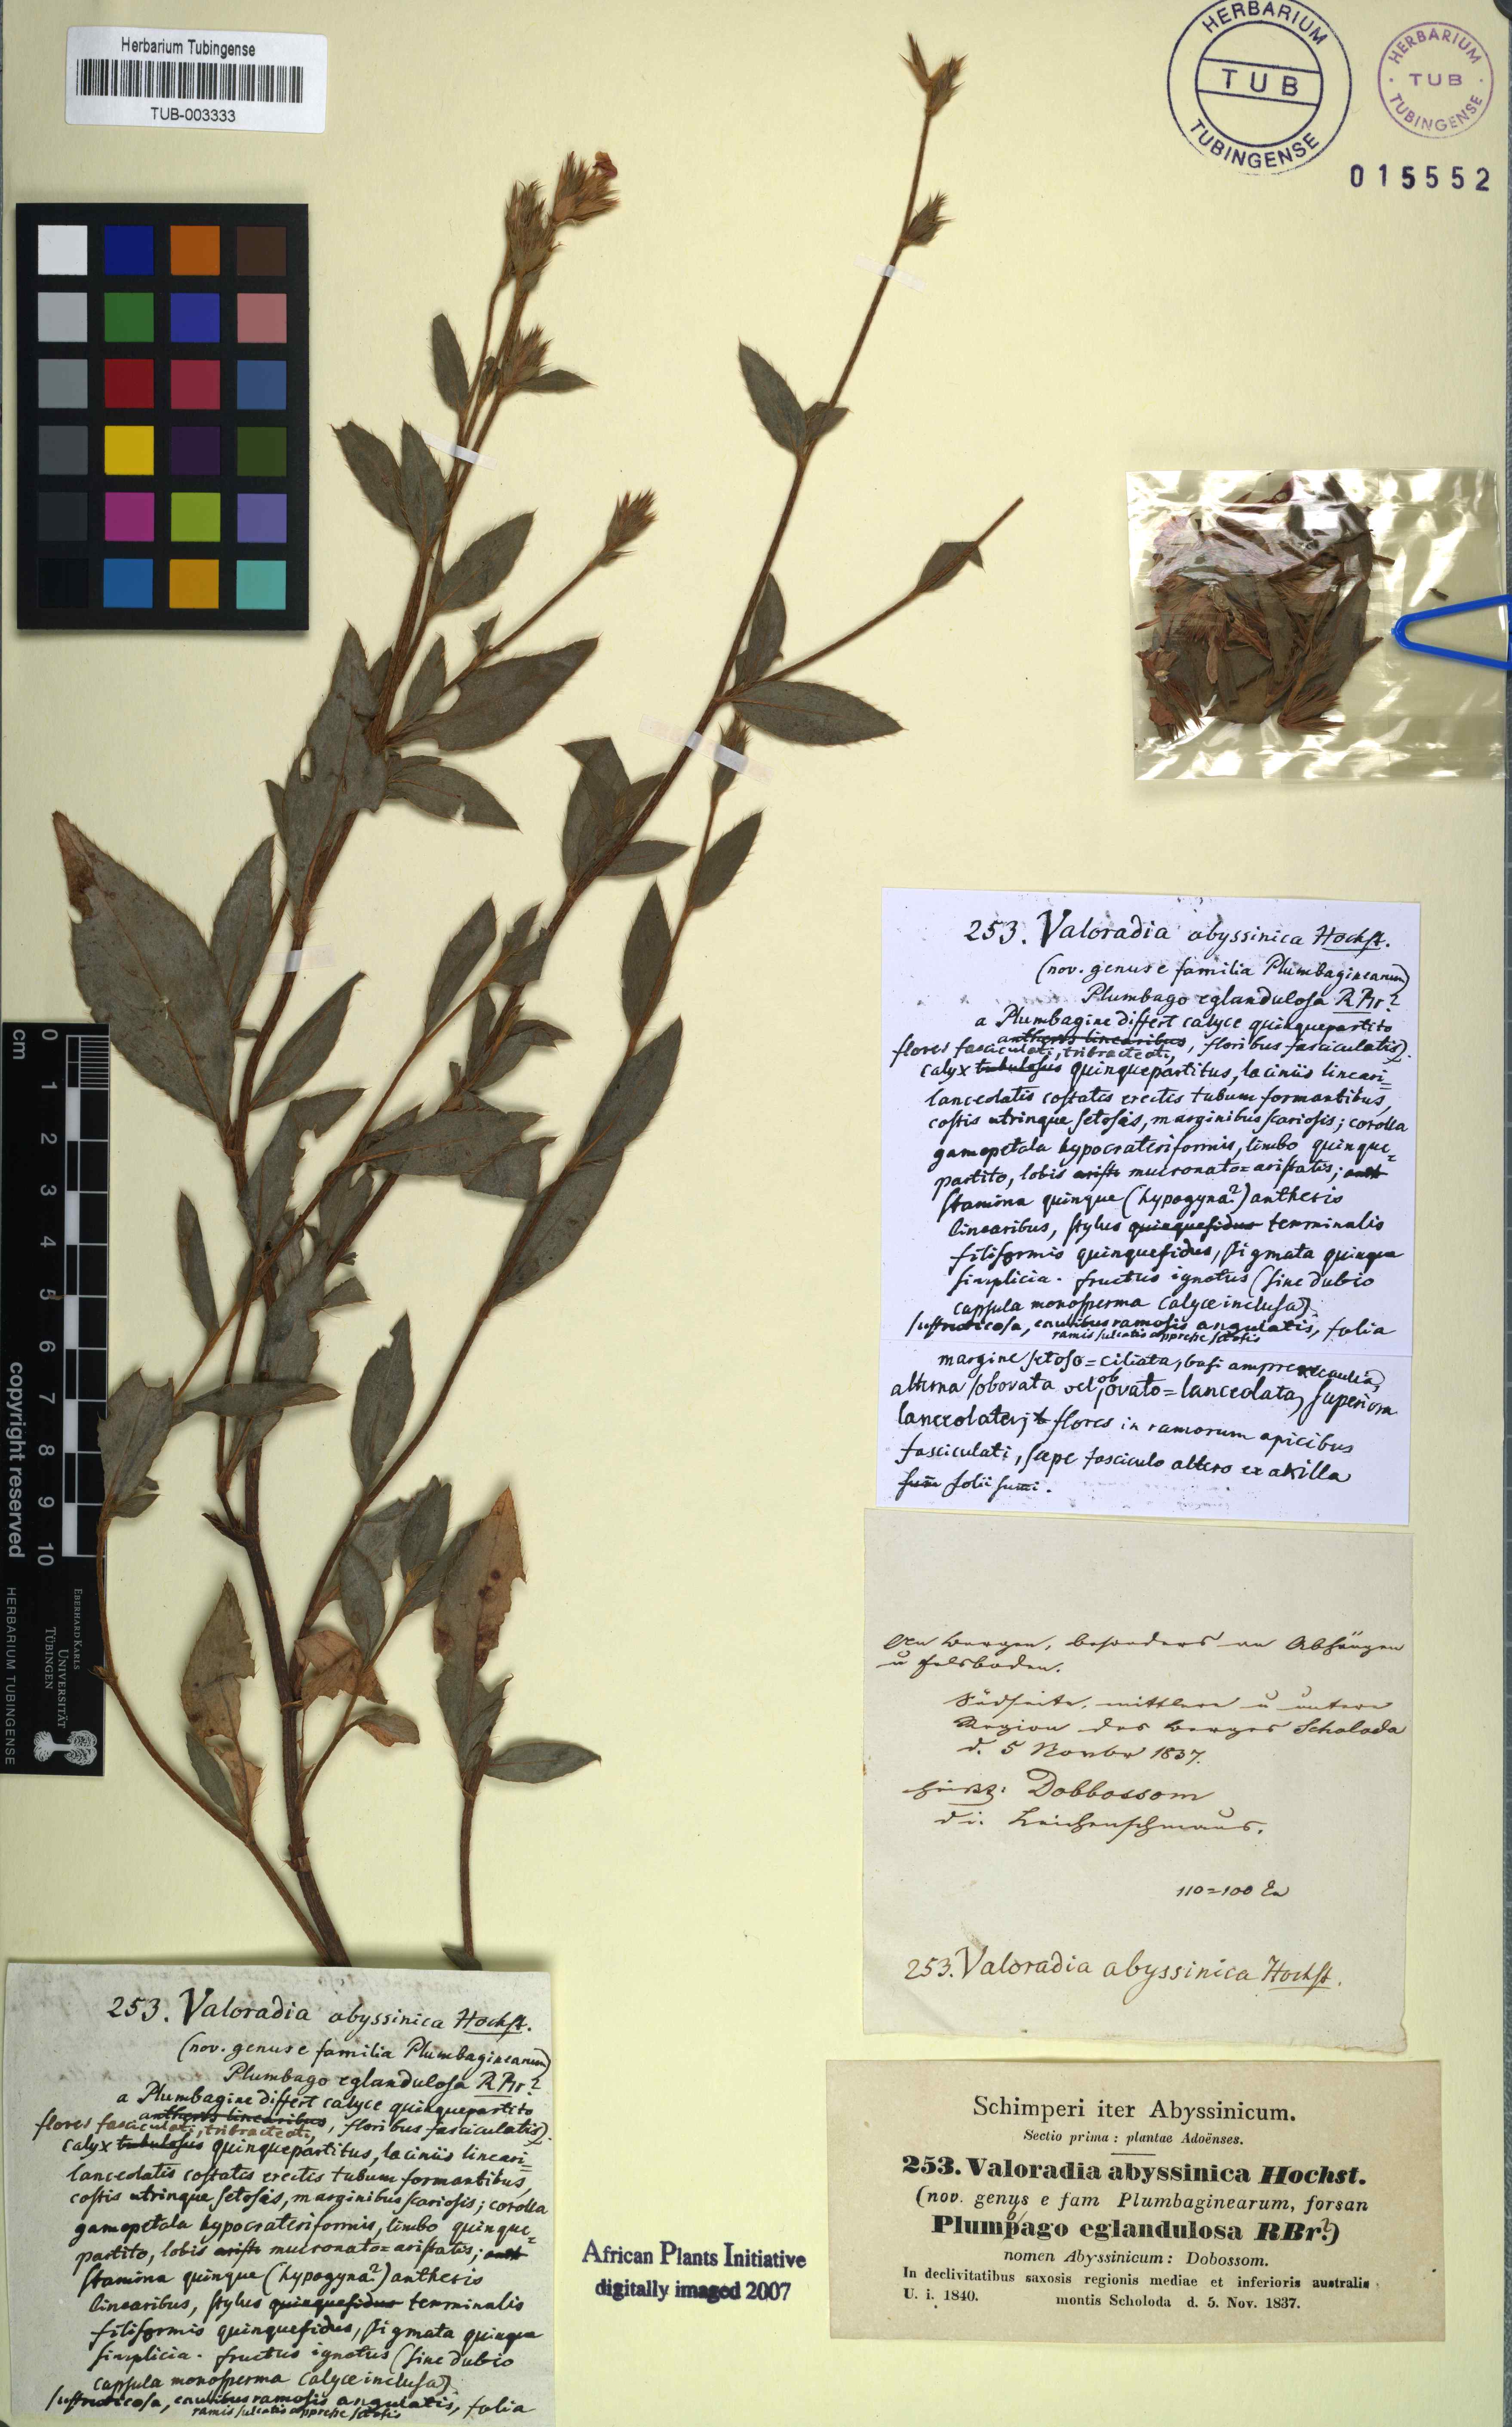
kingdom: Plantae
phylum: Tracheophyta
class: Magnoliopsida
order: Caryophyllales
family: Plumbaginaceae
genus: Ceratostigma
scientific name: Ceratostigma abyssinicum
